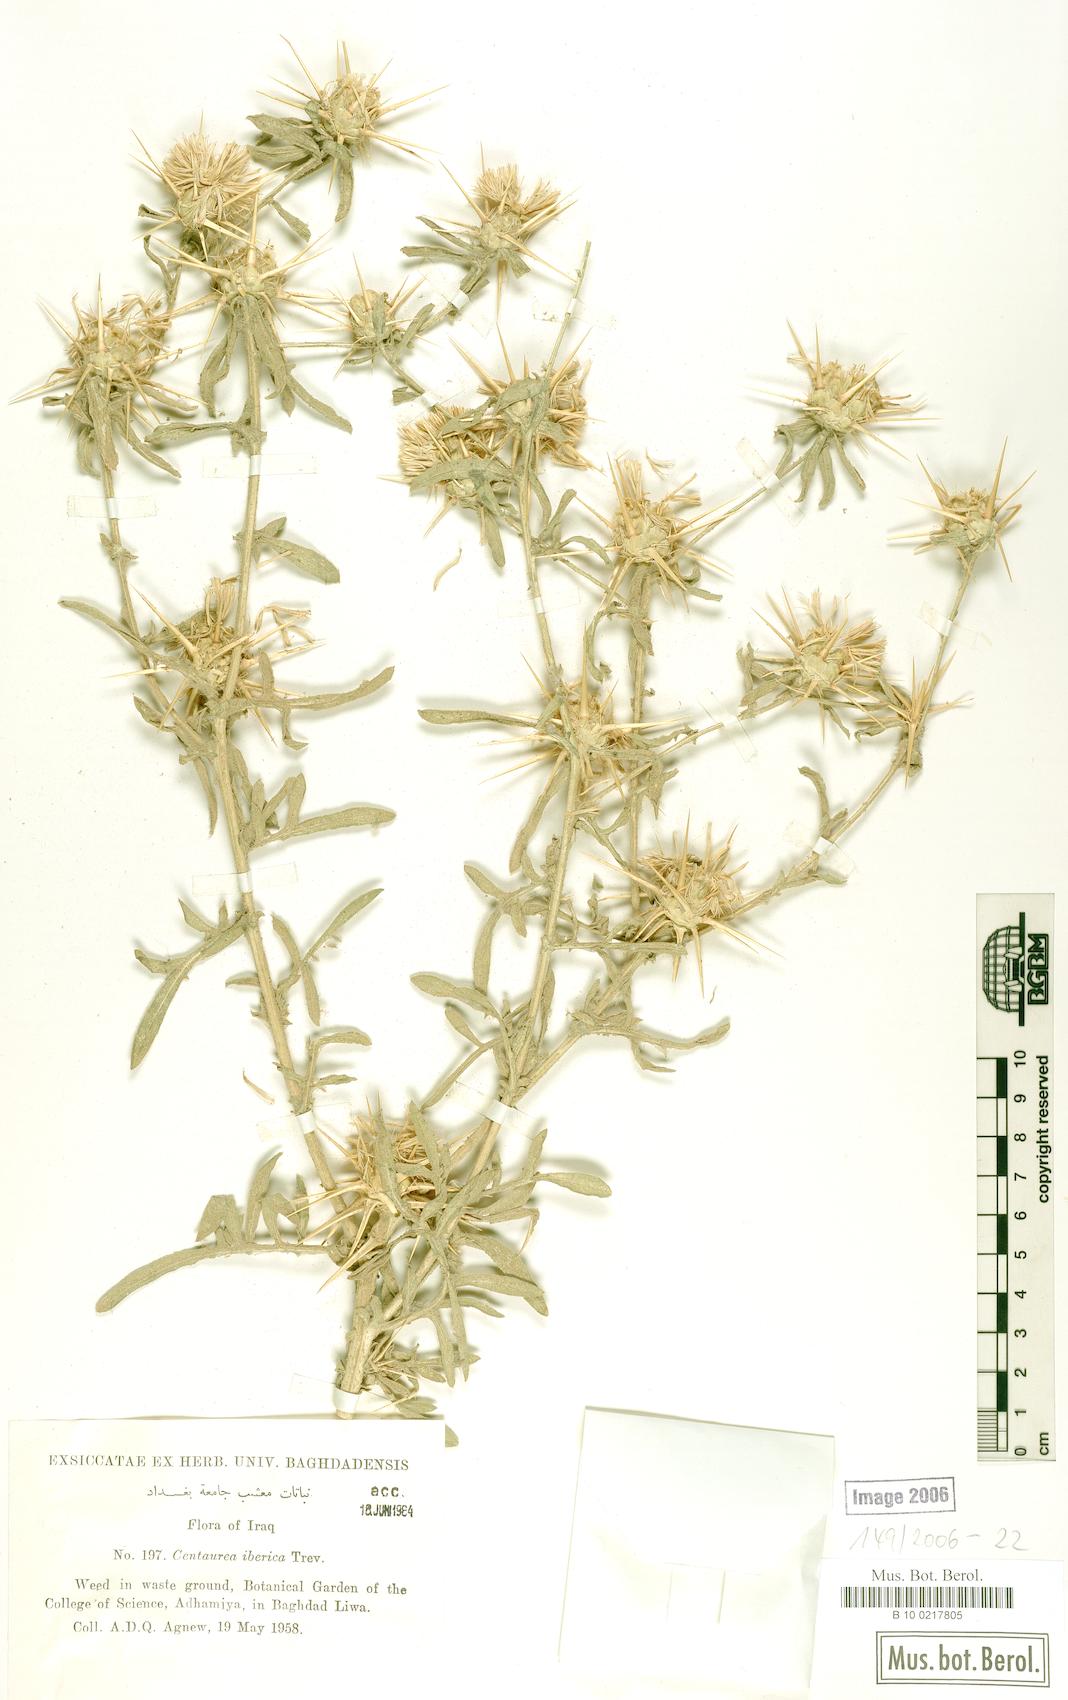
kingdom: Plantae
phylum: Tracheophyta
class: Magnoliopsida
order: Asterales
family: Asteraceae
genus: Centaurea
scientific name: Centaurea iberica
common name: Iberian knapweed
